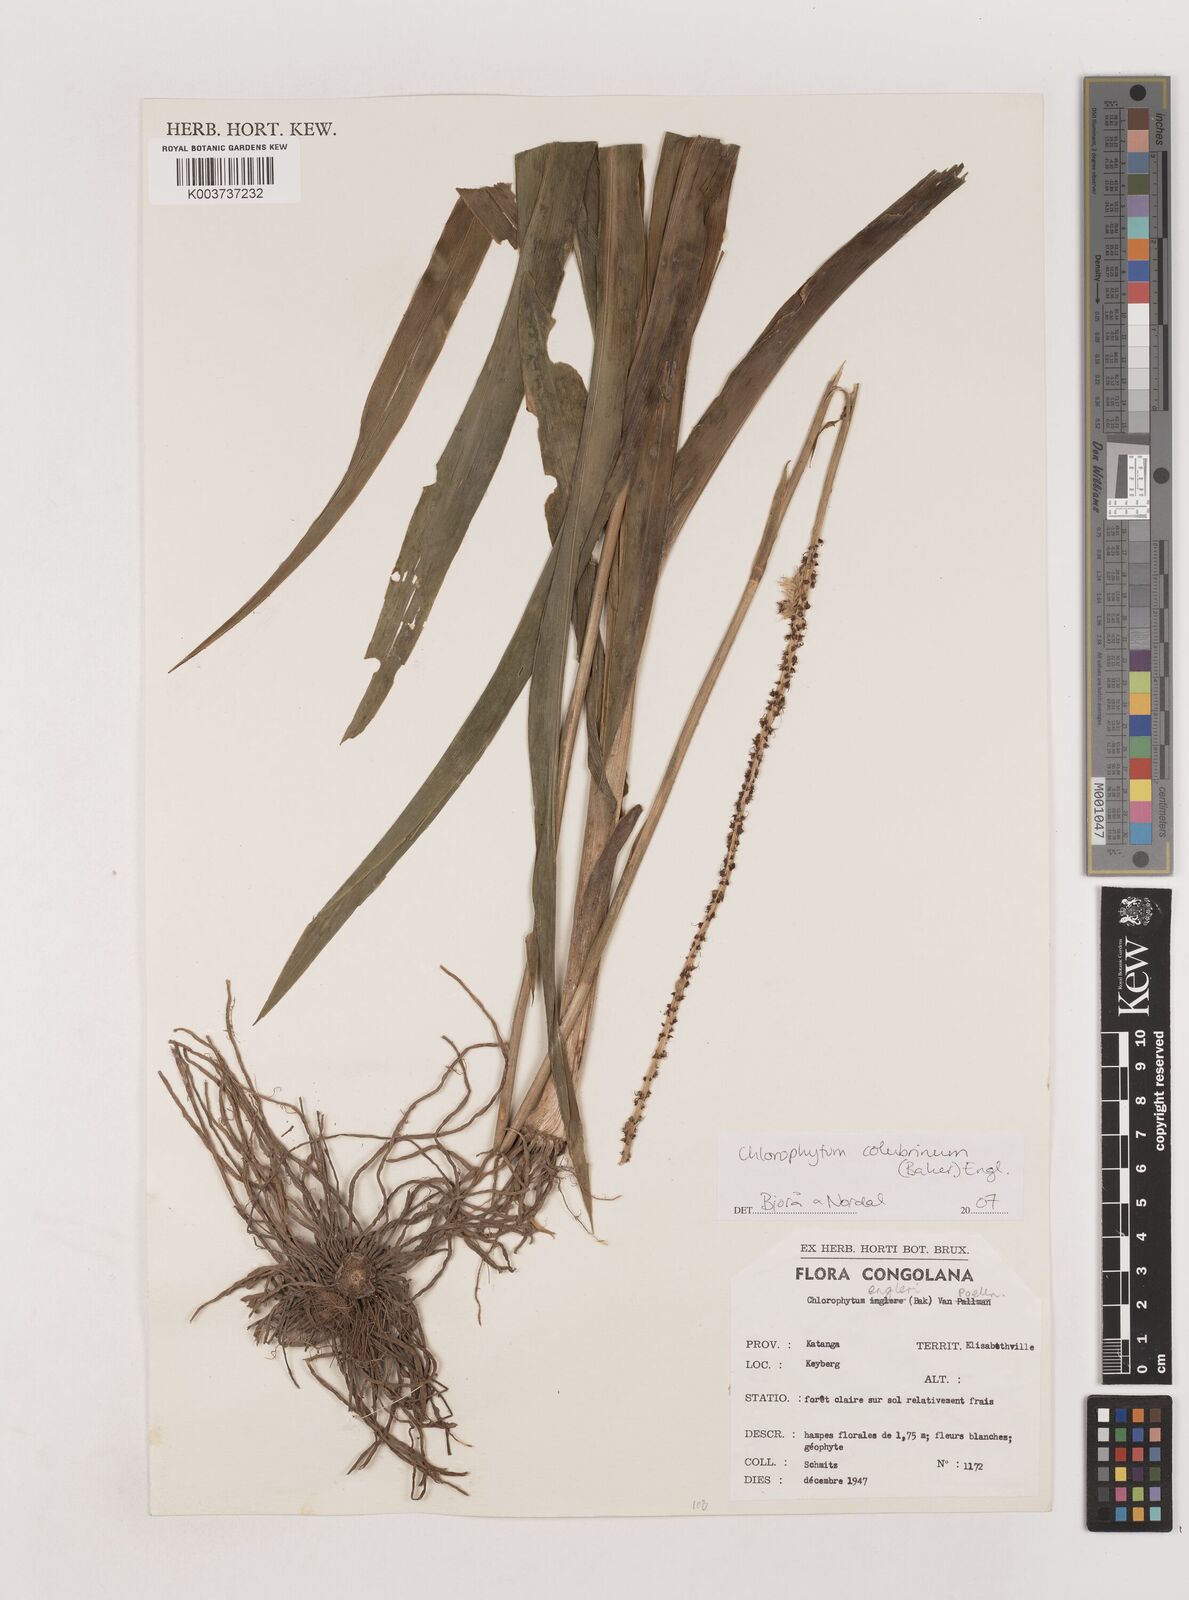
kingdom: Plantae
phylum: Tracheophyta
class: Liliopsida
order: Asparagales
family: Asparagaceae
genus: Chlorophytum
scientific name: Chlorophytum colubrinum
